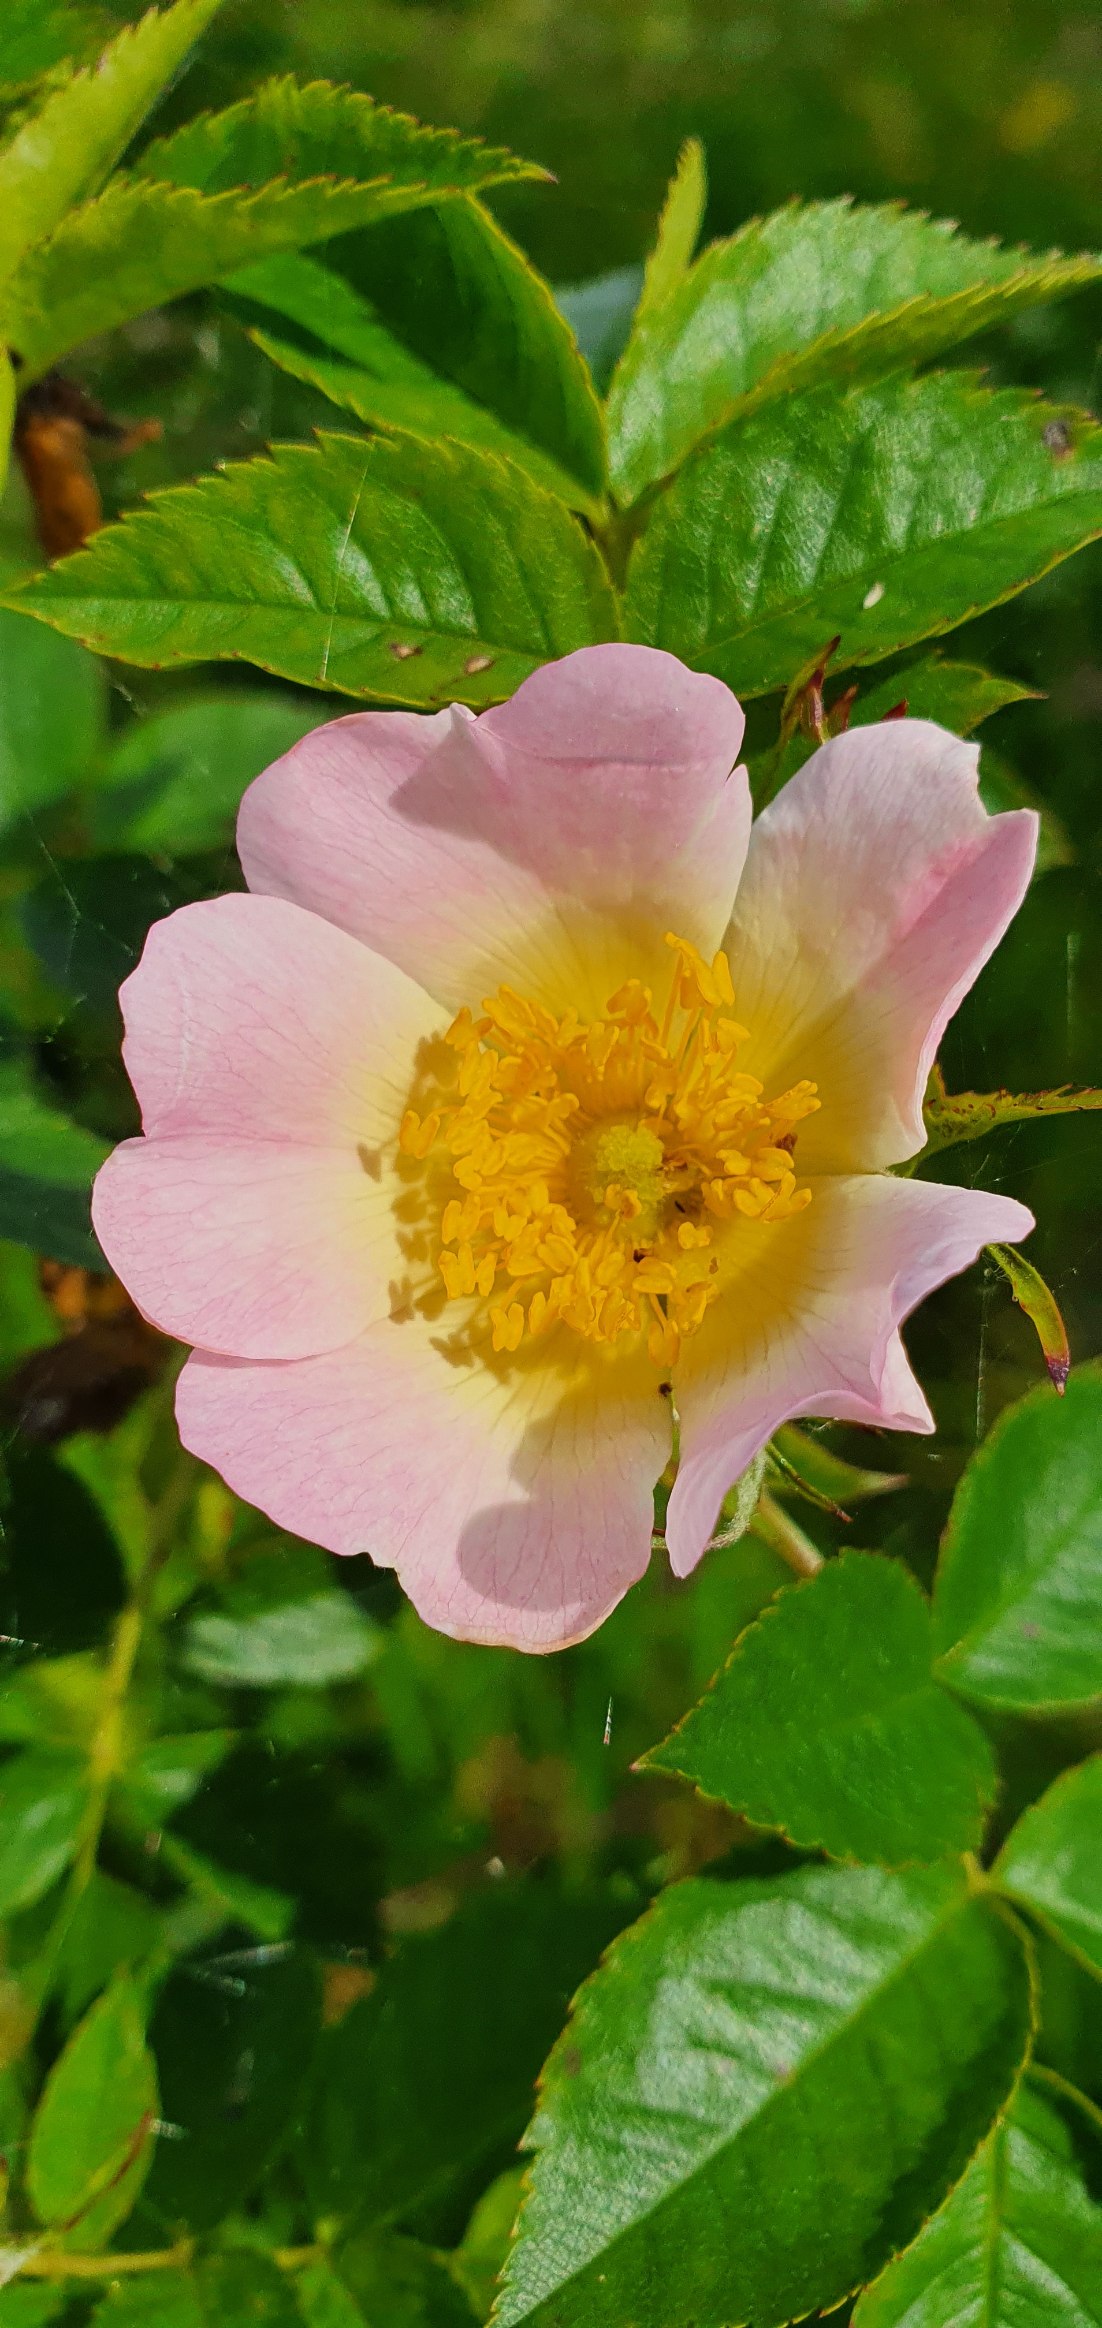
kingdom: Plantae
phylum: Tracheophyta
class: Magnoliopsida
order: Rosales
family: Rosaceae
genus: Rosa
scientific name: Rosa canina
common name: Glat hunde-rose
